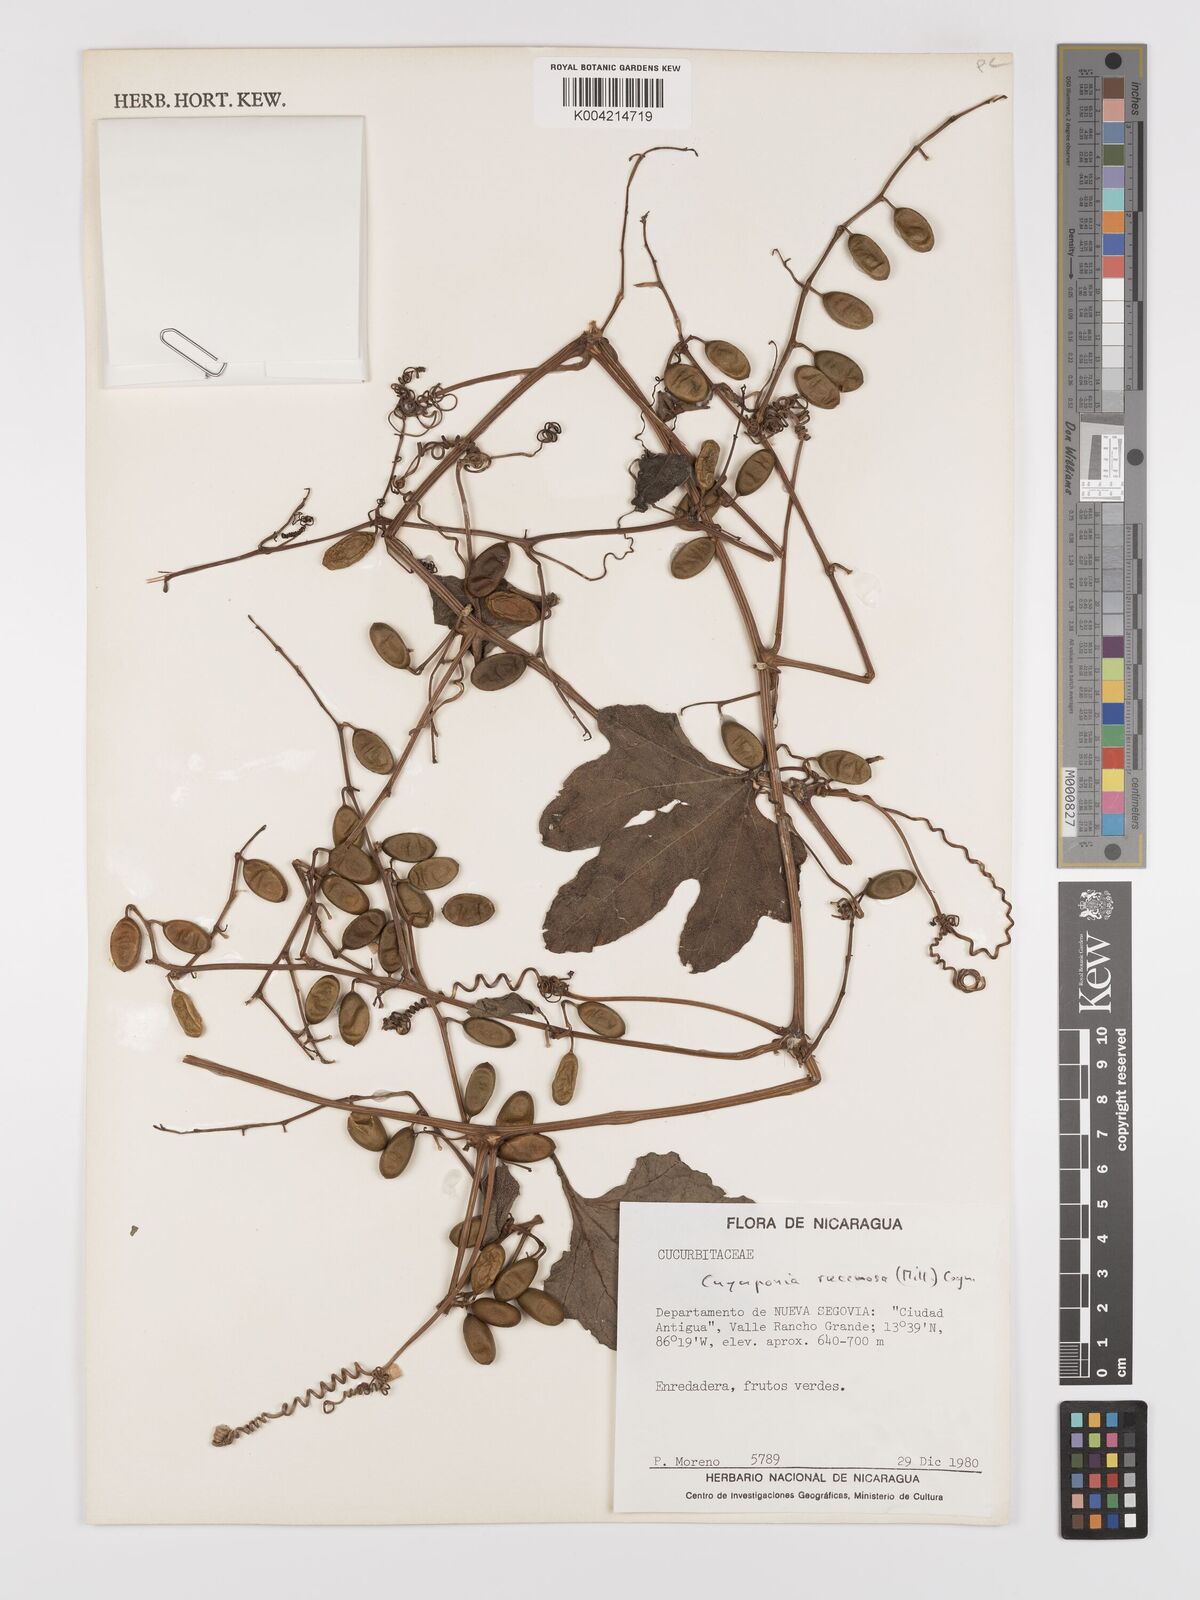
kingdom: Plantae
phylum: Tracheophyta
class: Magnoliopsida
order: Cucurbitales
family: Cucurbitaceae
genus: Cayaponia
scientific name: Cayaponia racemosa
